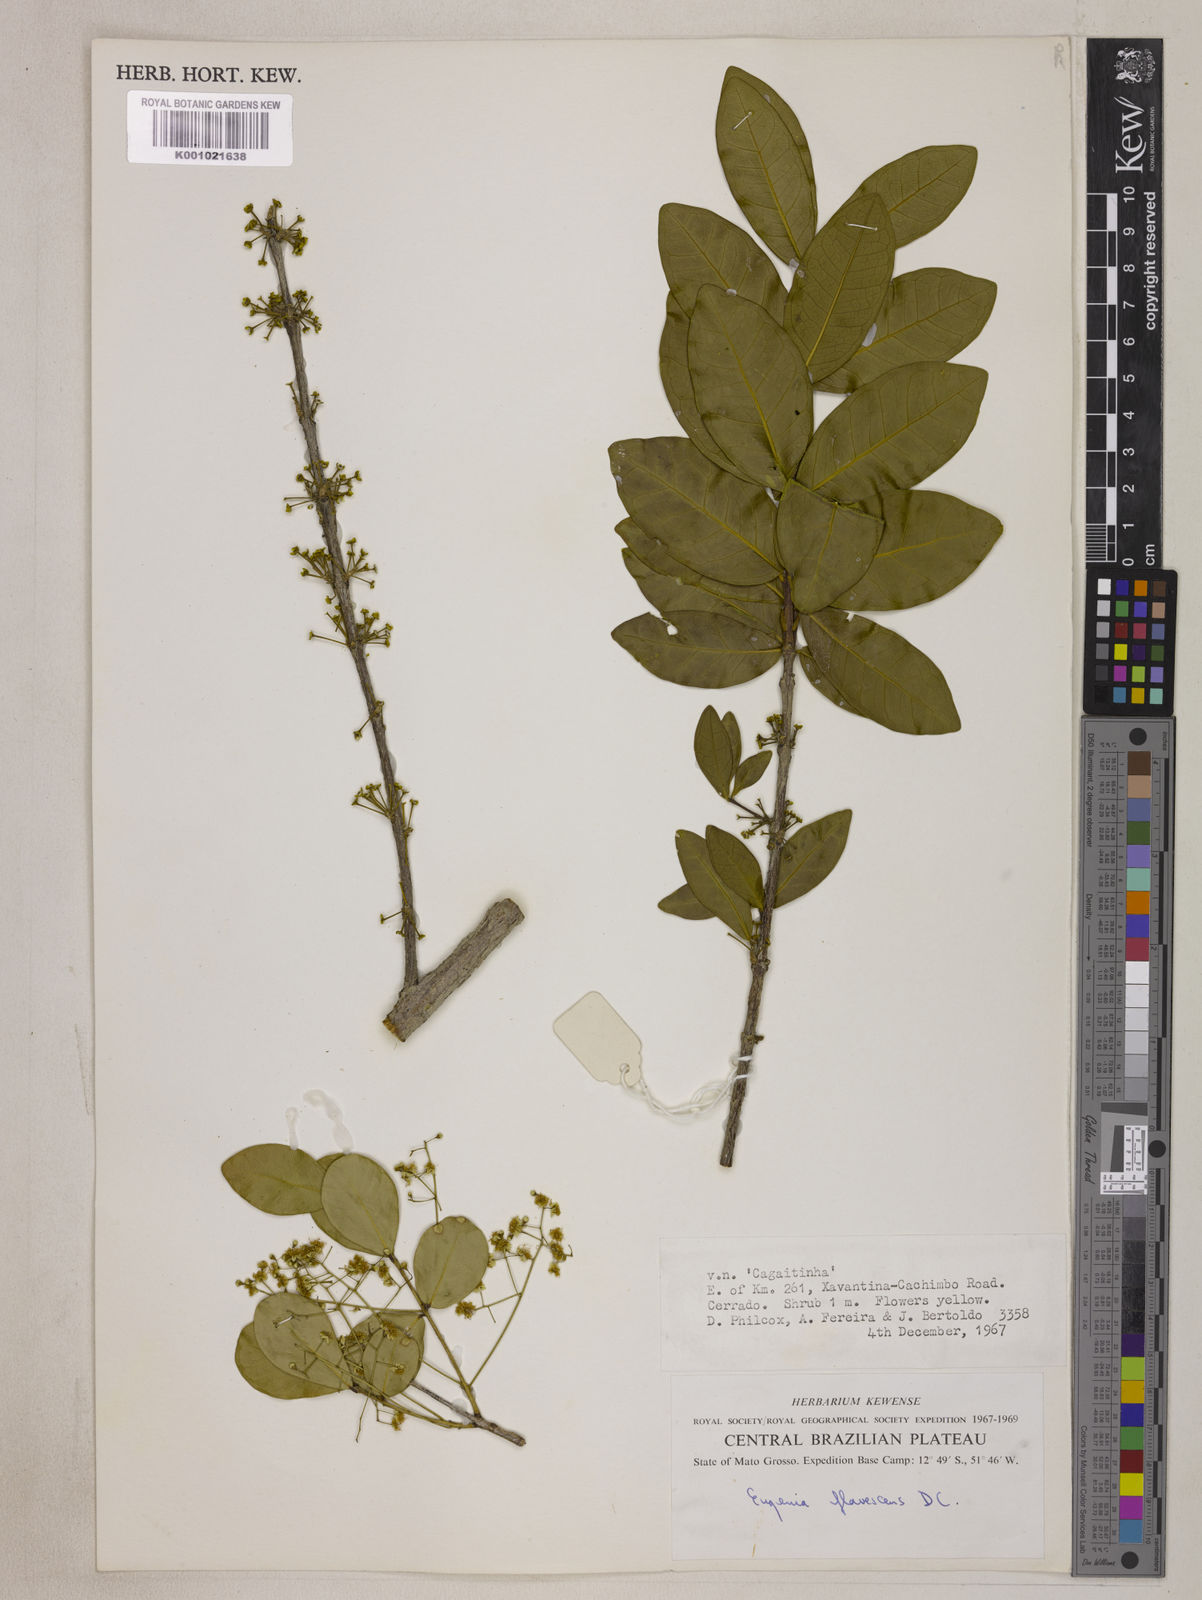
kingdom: Plantae
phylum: Tracheophyta
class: Magnoliopsida
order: Myrtales
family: Myrtaceae
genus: Eugenia
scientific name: Eugenia flavescens
